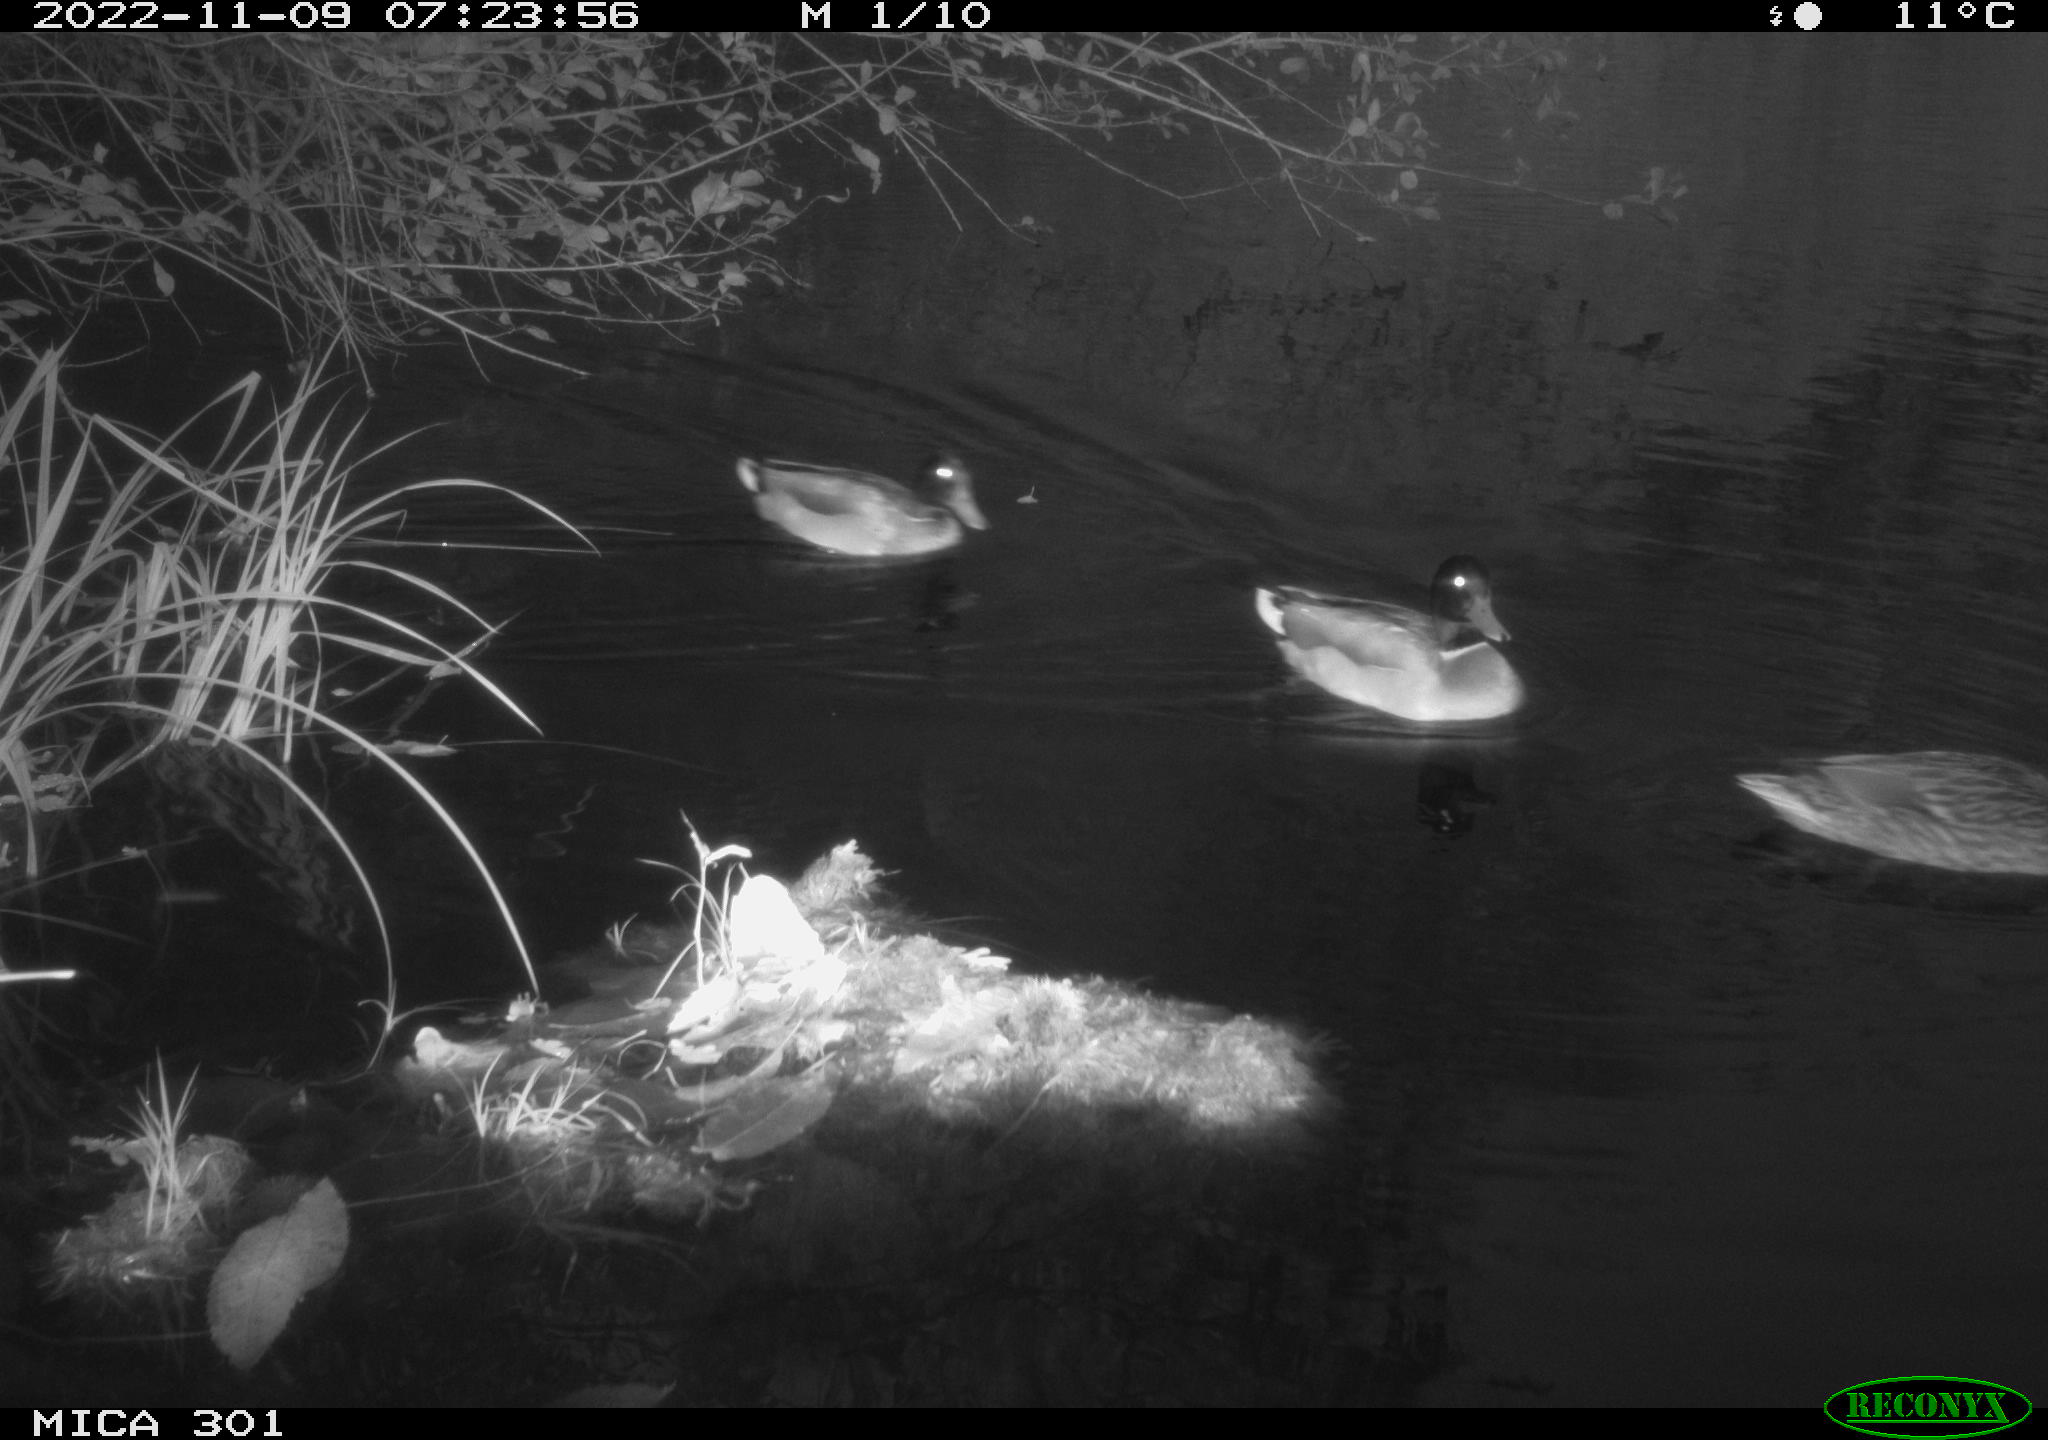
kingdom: Animalia
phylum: Chordata
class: Aves
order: Anseriformes
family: Anatidae
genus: Anas
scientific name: Anas
